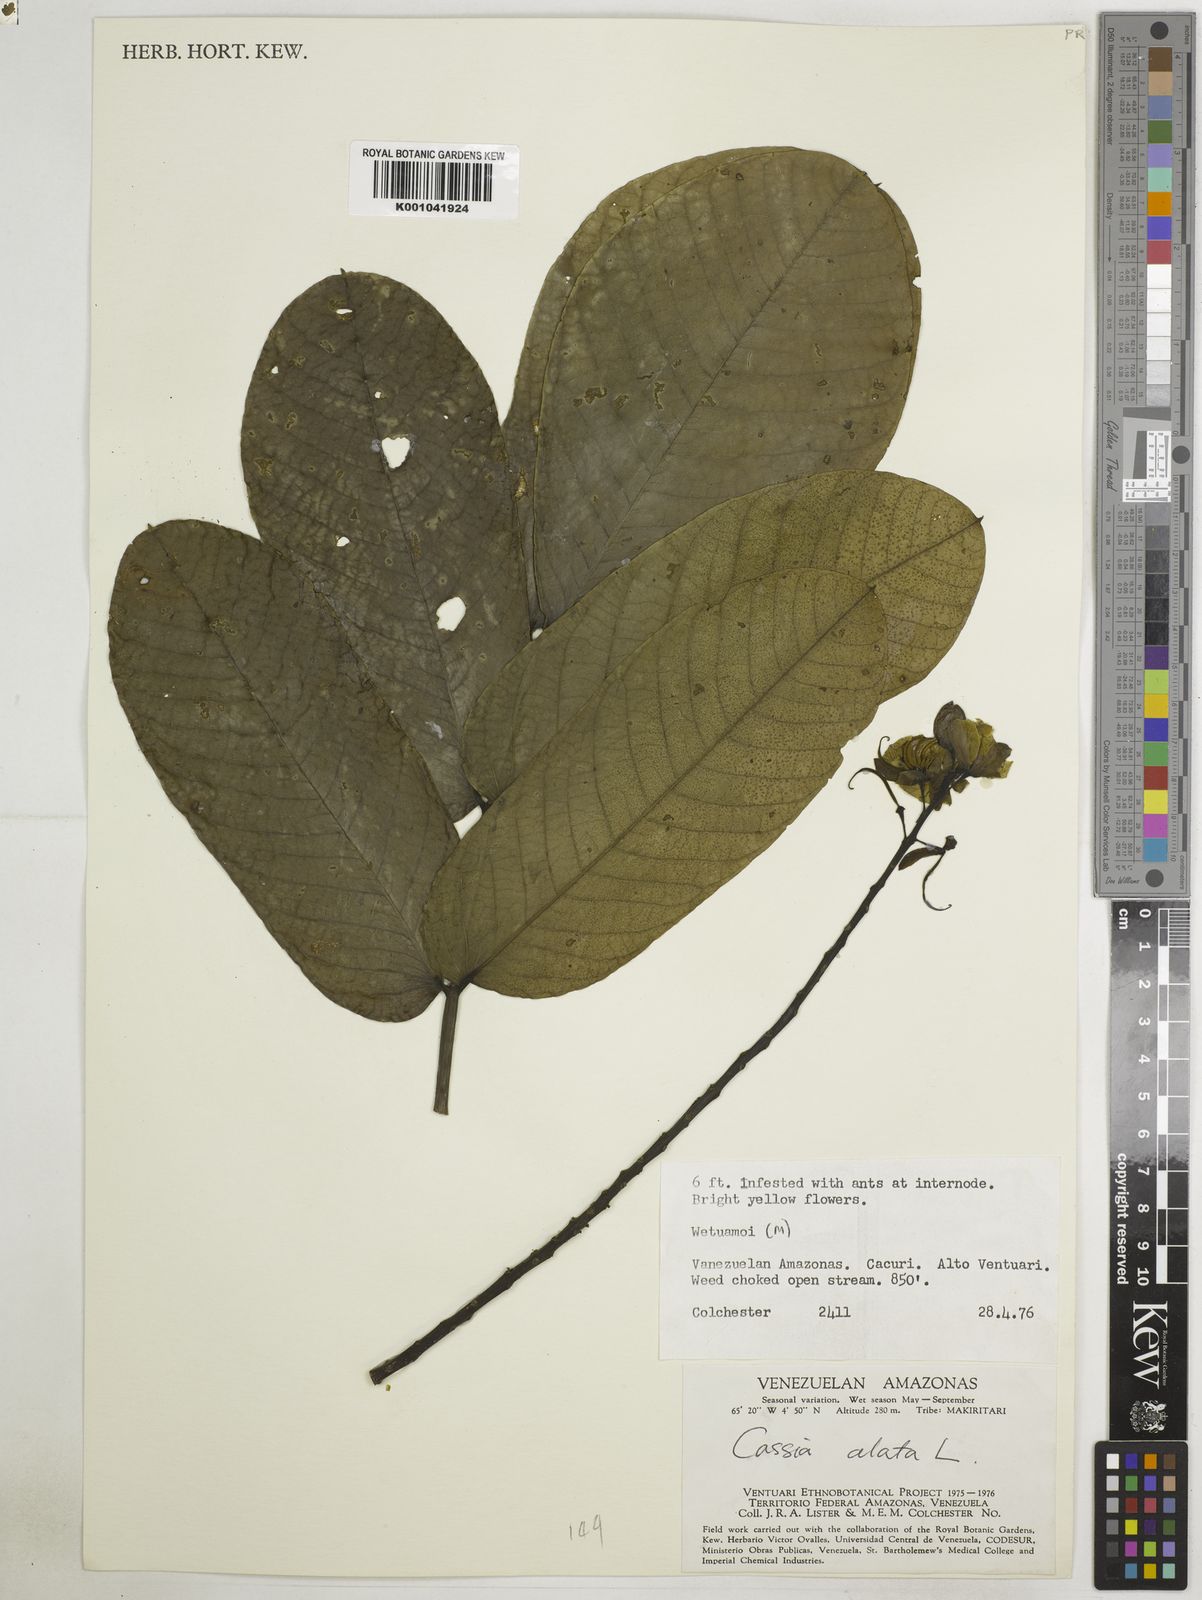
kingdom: Plantae
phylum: Tracheophyta
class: Magnoliopsida
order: Fabales
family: Fabaceae
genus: Senna
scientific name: Senna alata
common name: Emperor's candlesticks
